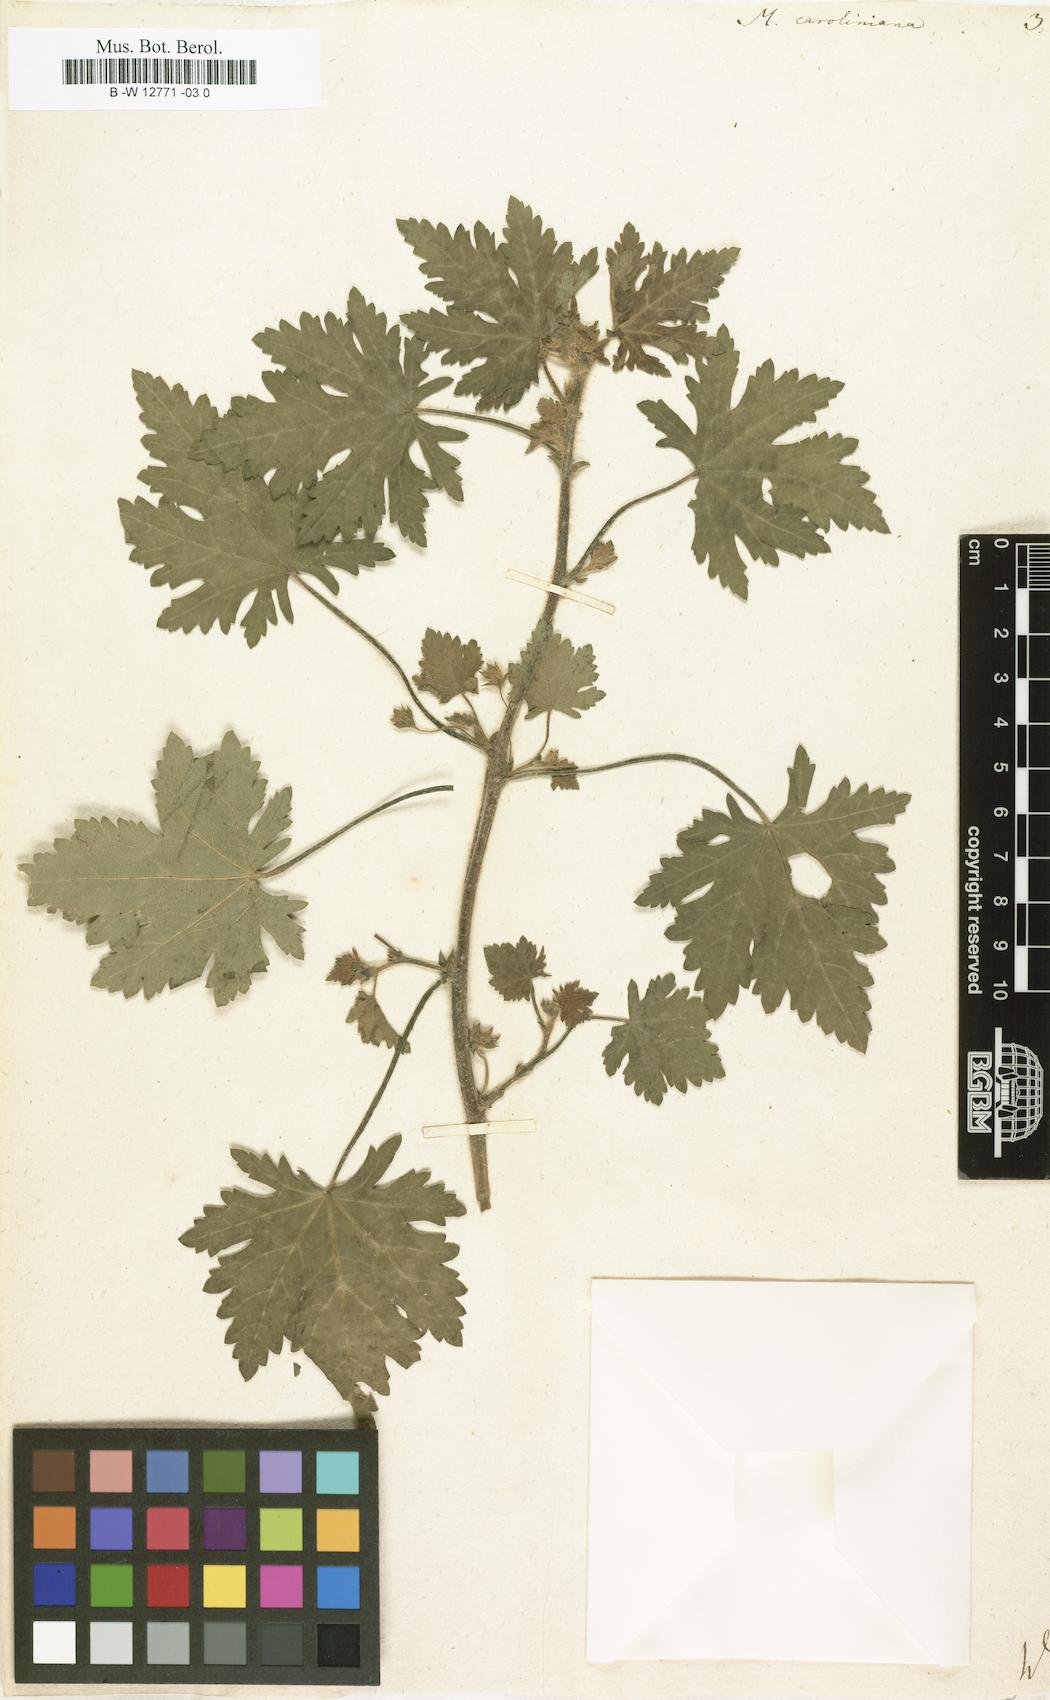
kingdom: Plantae
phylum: Tracheophyta
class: Magnoliopsida
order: Malvales
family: Malvaceae
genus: Modiola
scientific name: Modiola caroliniana
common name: Carolina bristlemallow
